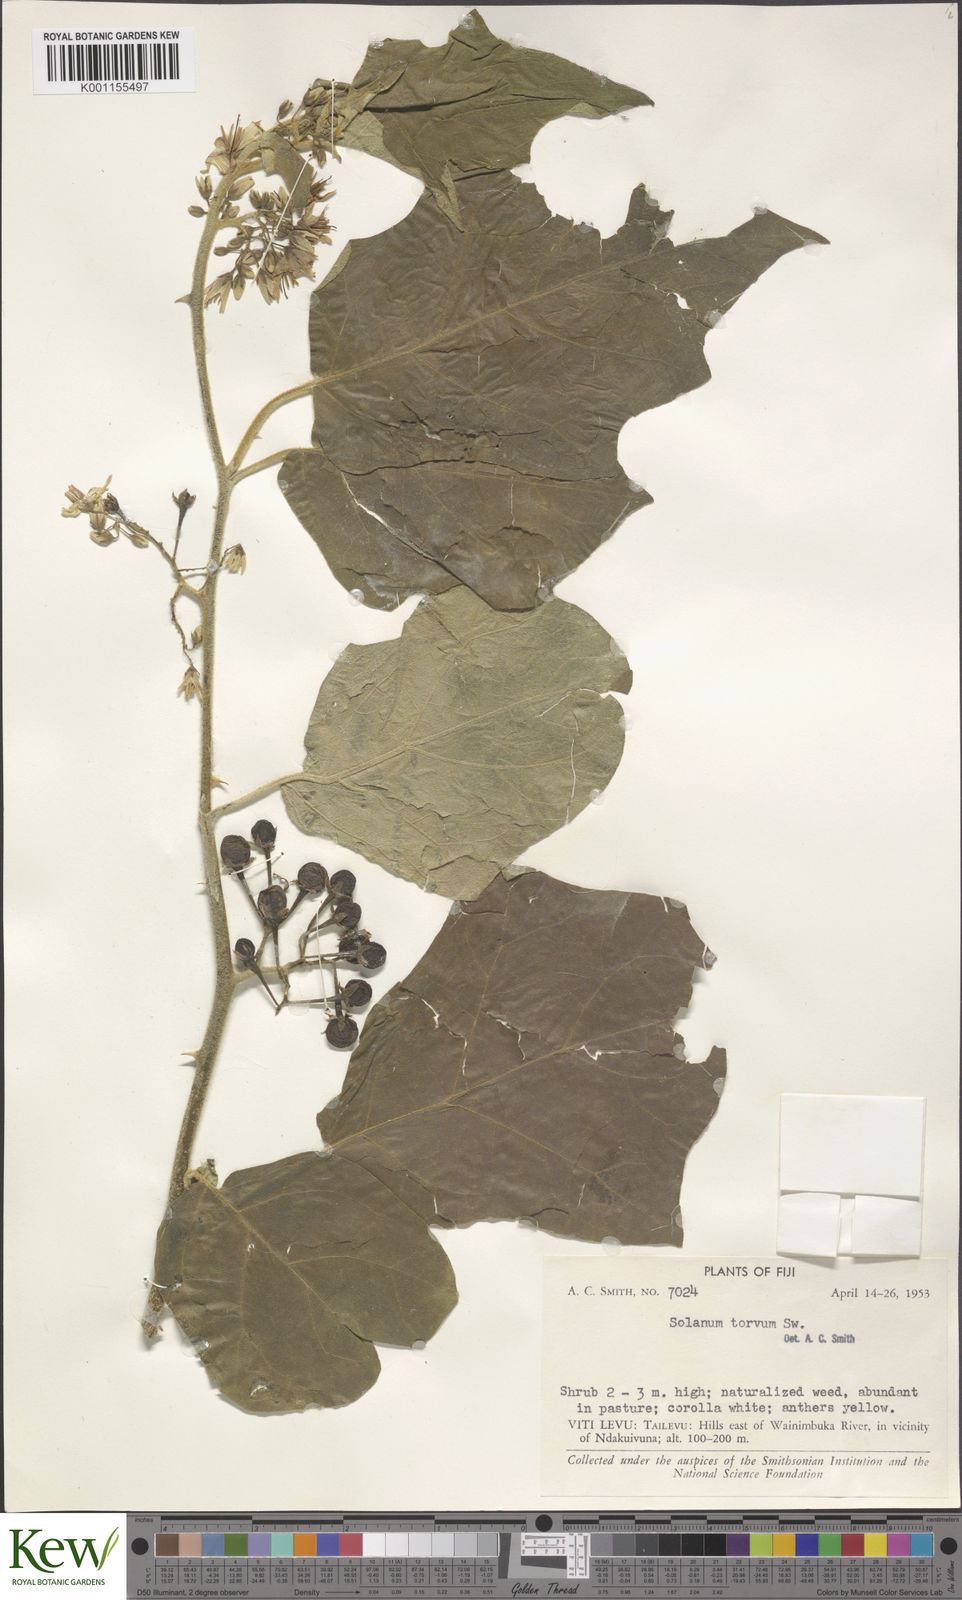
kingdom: Plantae
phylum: Tracheophyta
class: Magnoliopsida
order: Solanales
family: Solanaceae
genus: Solanum
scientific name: Solanum torvum
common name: Turkey berry
